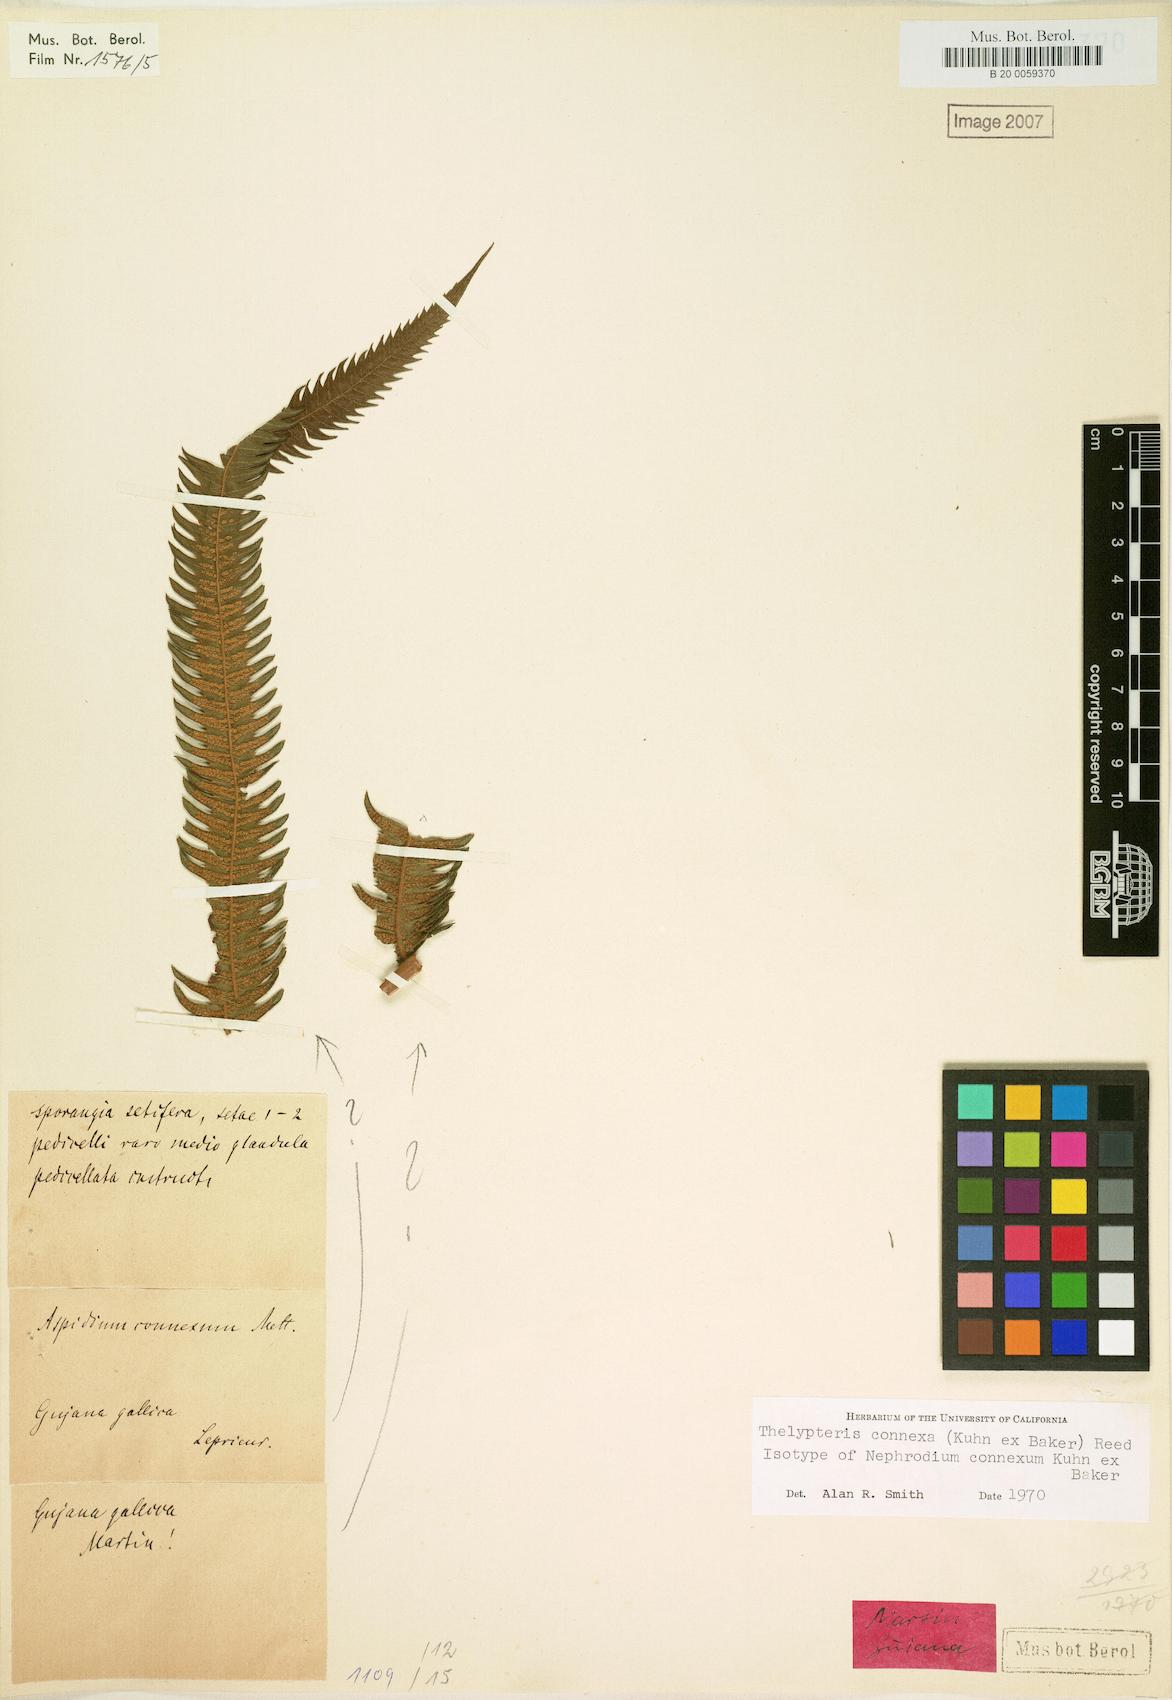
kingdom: Plantae
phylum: Tracheophyta
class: Polypodiopsida
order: Polypodiales
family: Thelypteridaceae
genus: Steiropteris
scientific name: Steiropteris connexa
